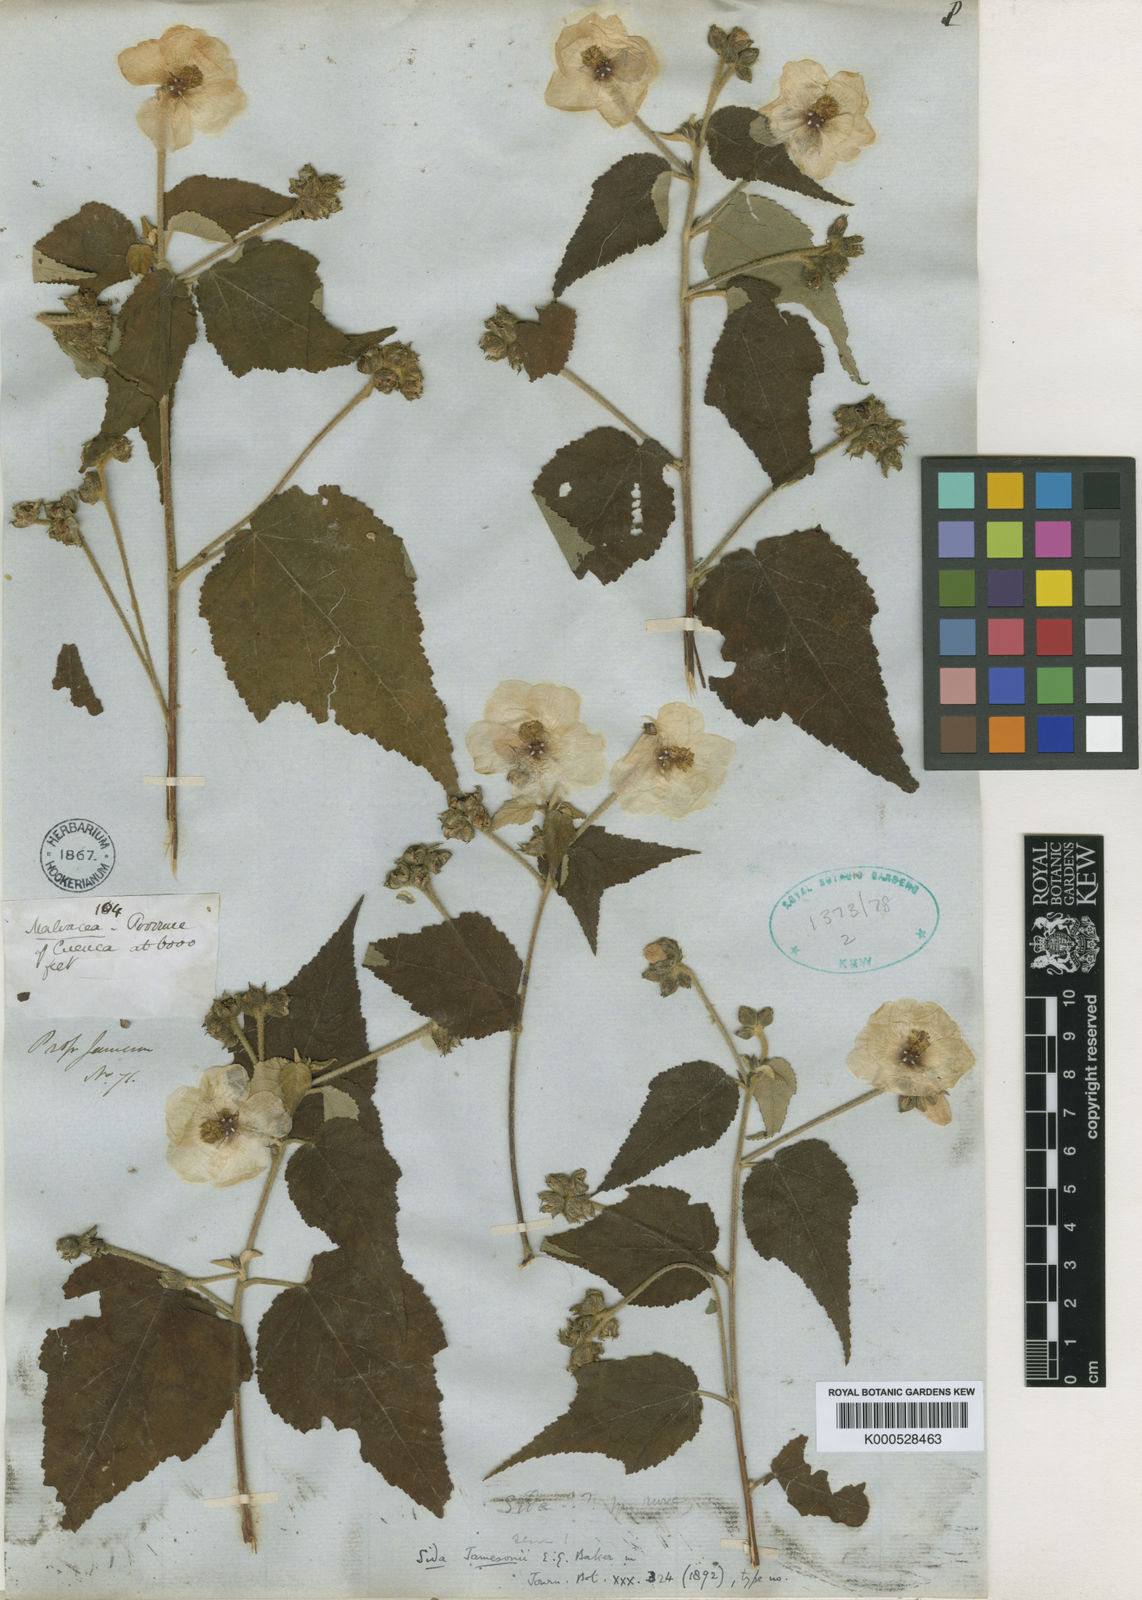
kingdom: Plantae
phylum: Tracheophyta
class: Magnoliopsida
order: Malvales
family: Malvaceae
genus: Sidasodes
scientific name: Sidasodes jamesonii
